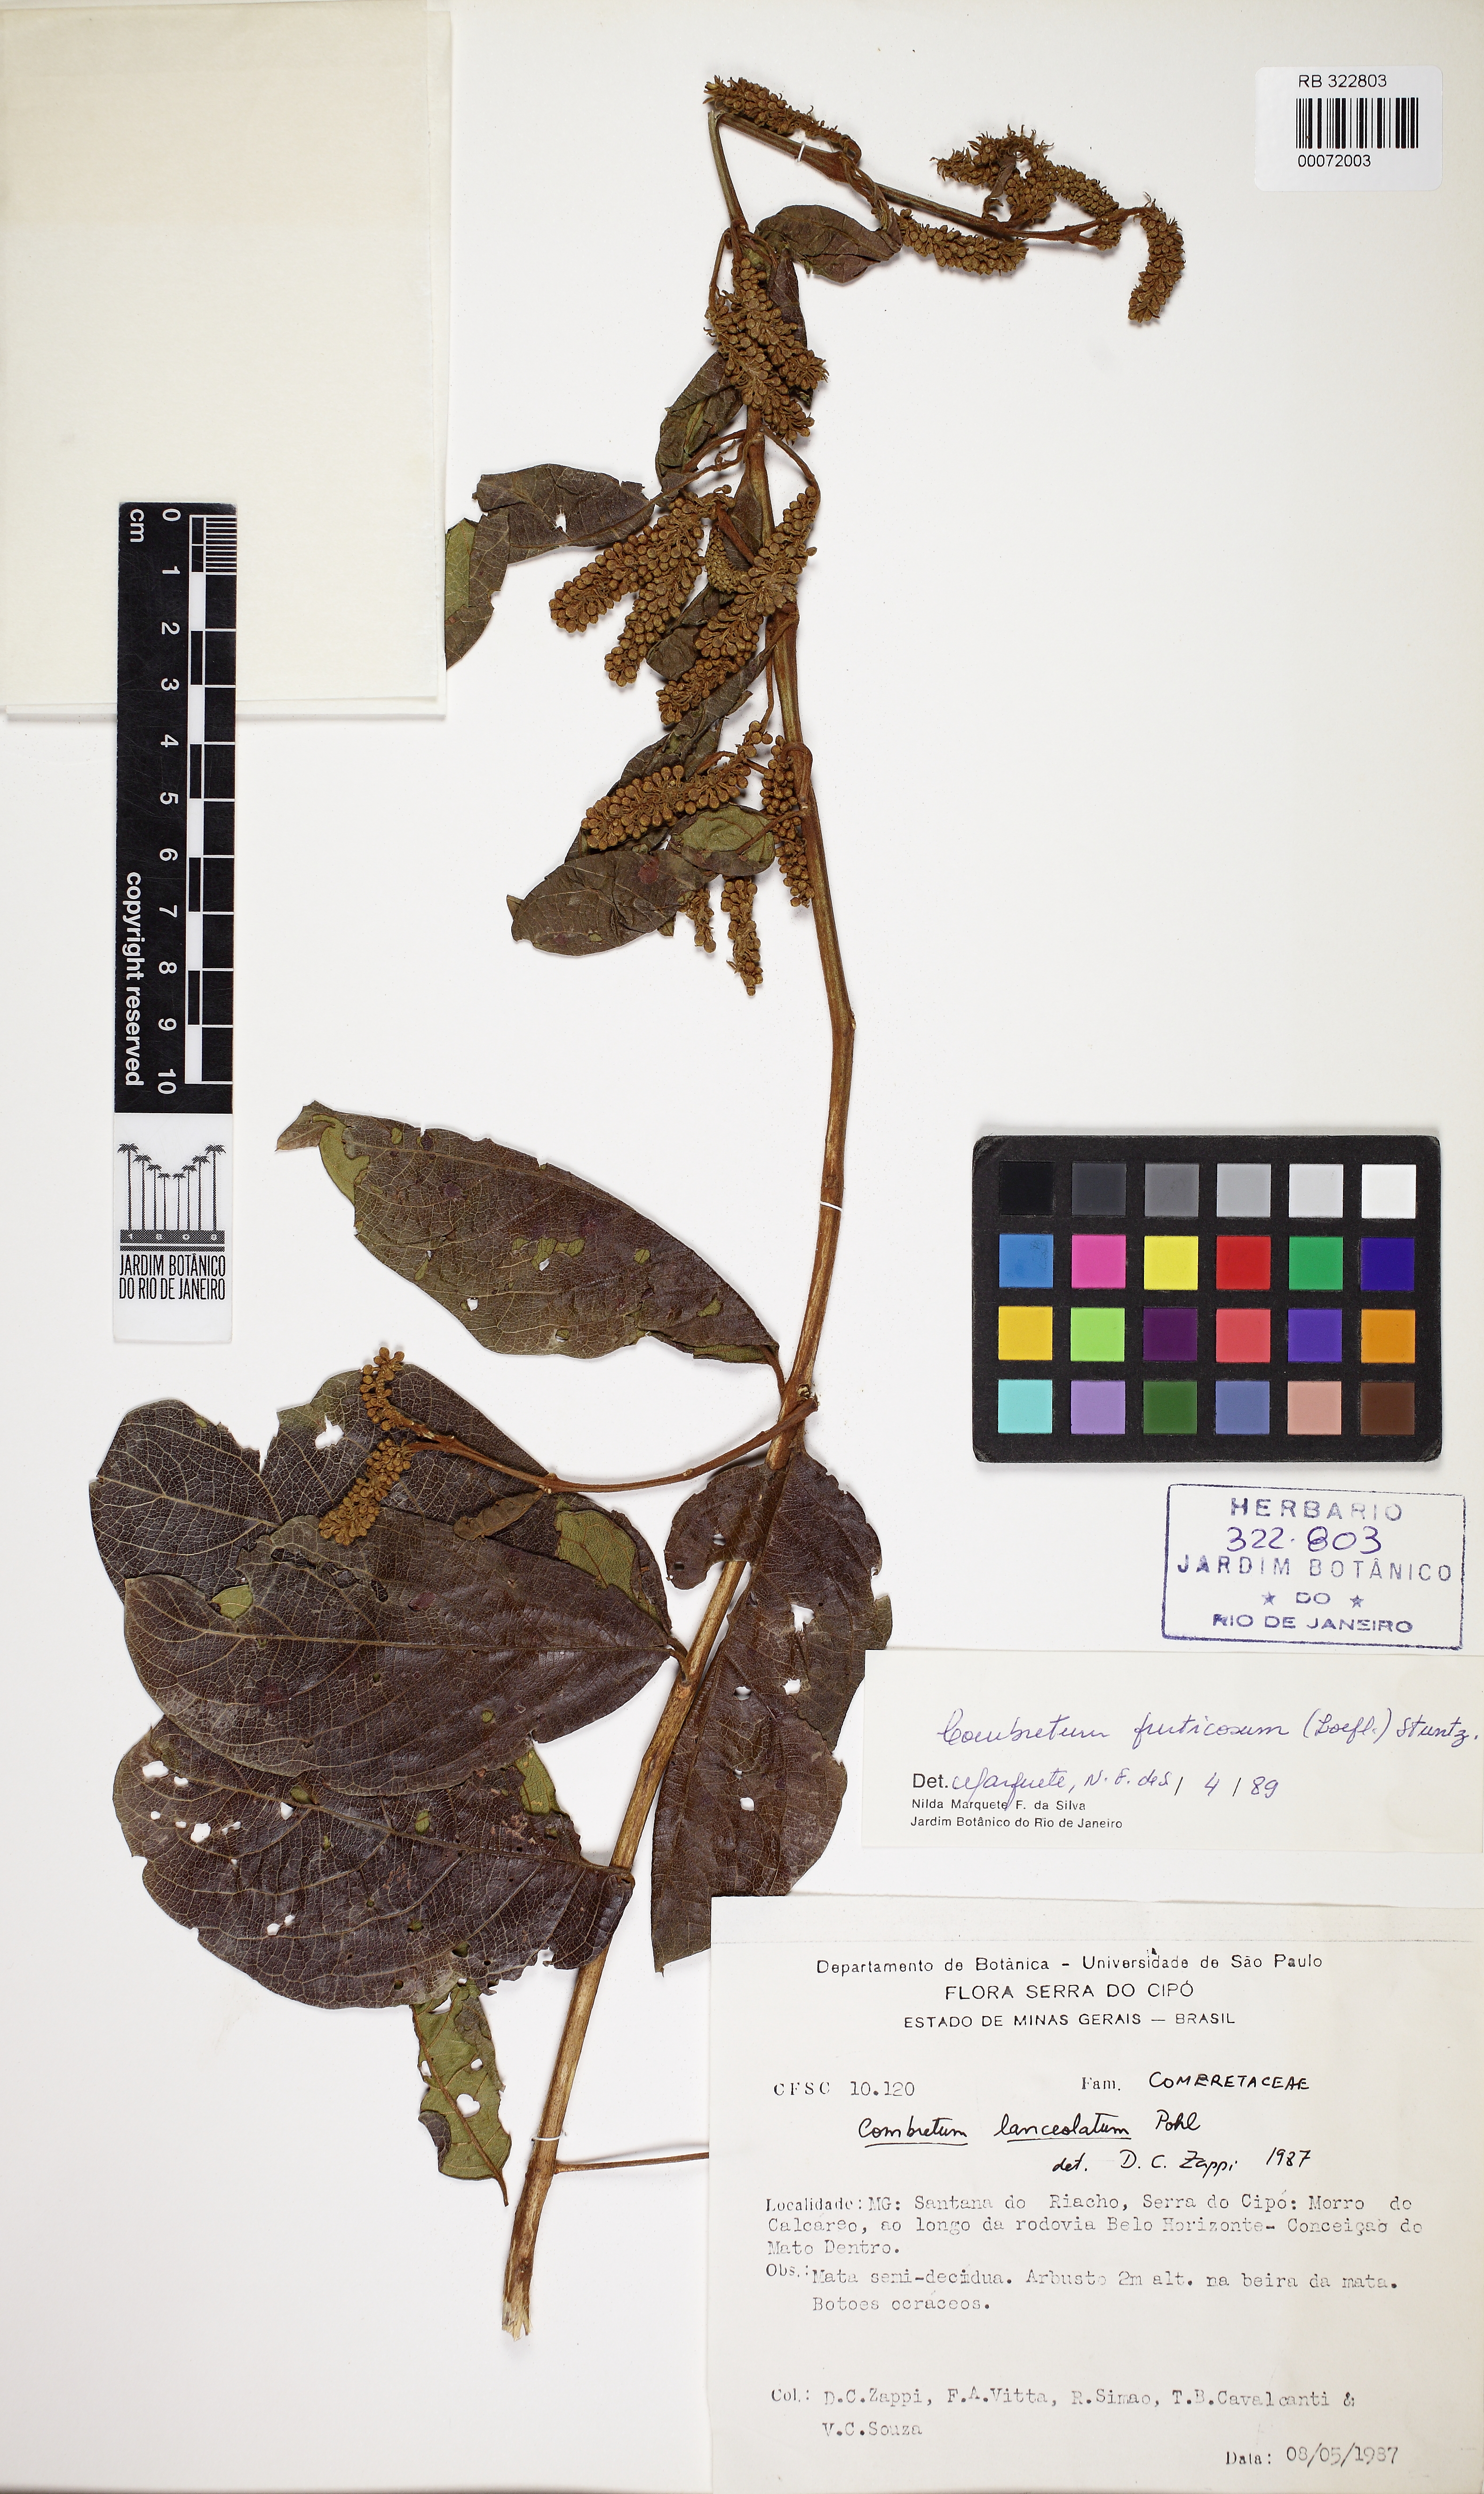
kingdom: Plantae
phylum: Tracheophyta
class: Magnoliopsida
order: Myrtales
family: Combretaceae
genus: Combretum
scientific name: Combretum fruticosum
